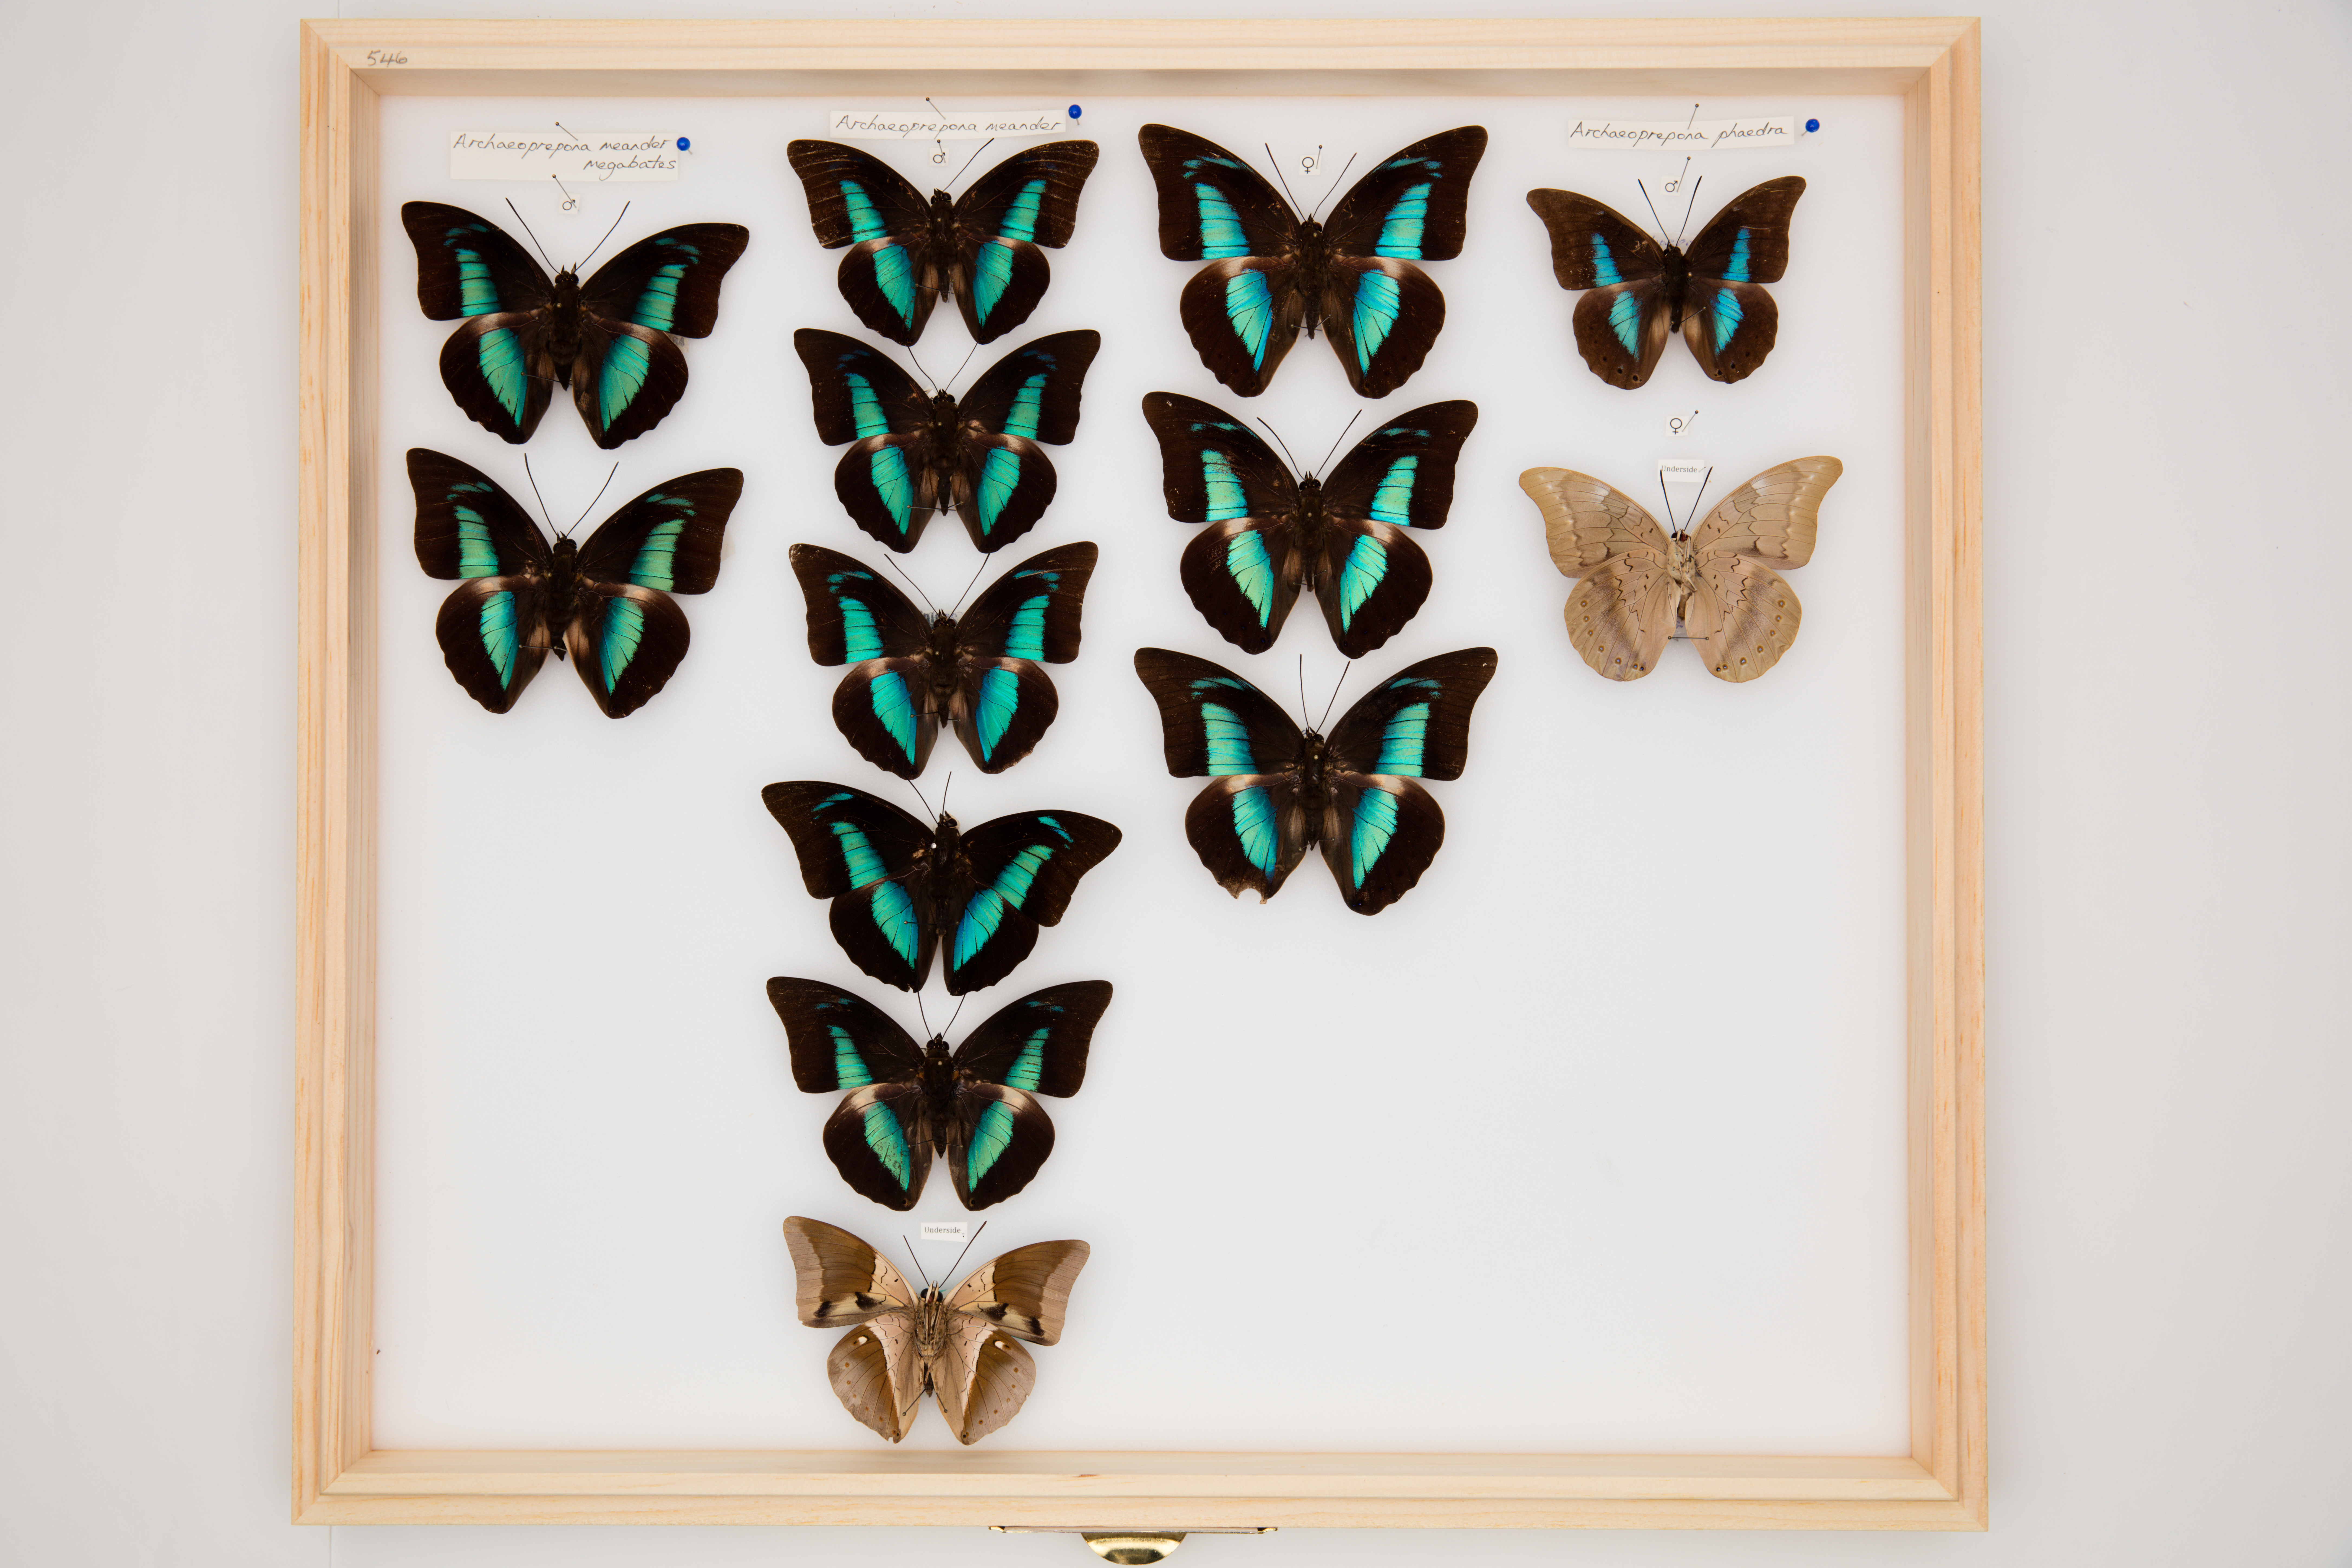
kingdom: Animalia
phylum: Arthropoda
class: Insecta
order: Lepidoptera
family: Nymphalidae
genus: Prepona
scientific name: Prepona Archaeoprepona phaedra
